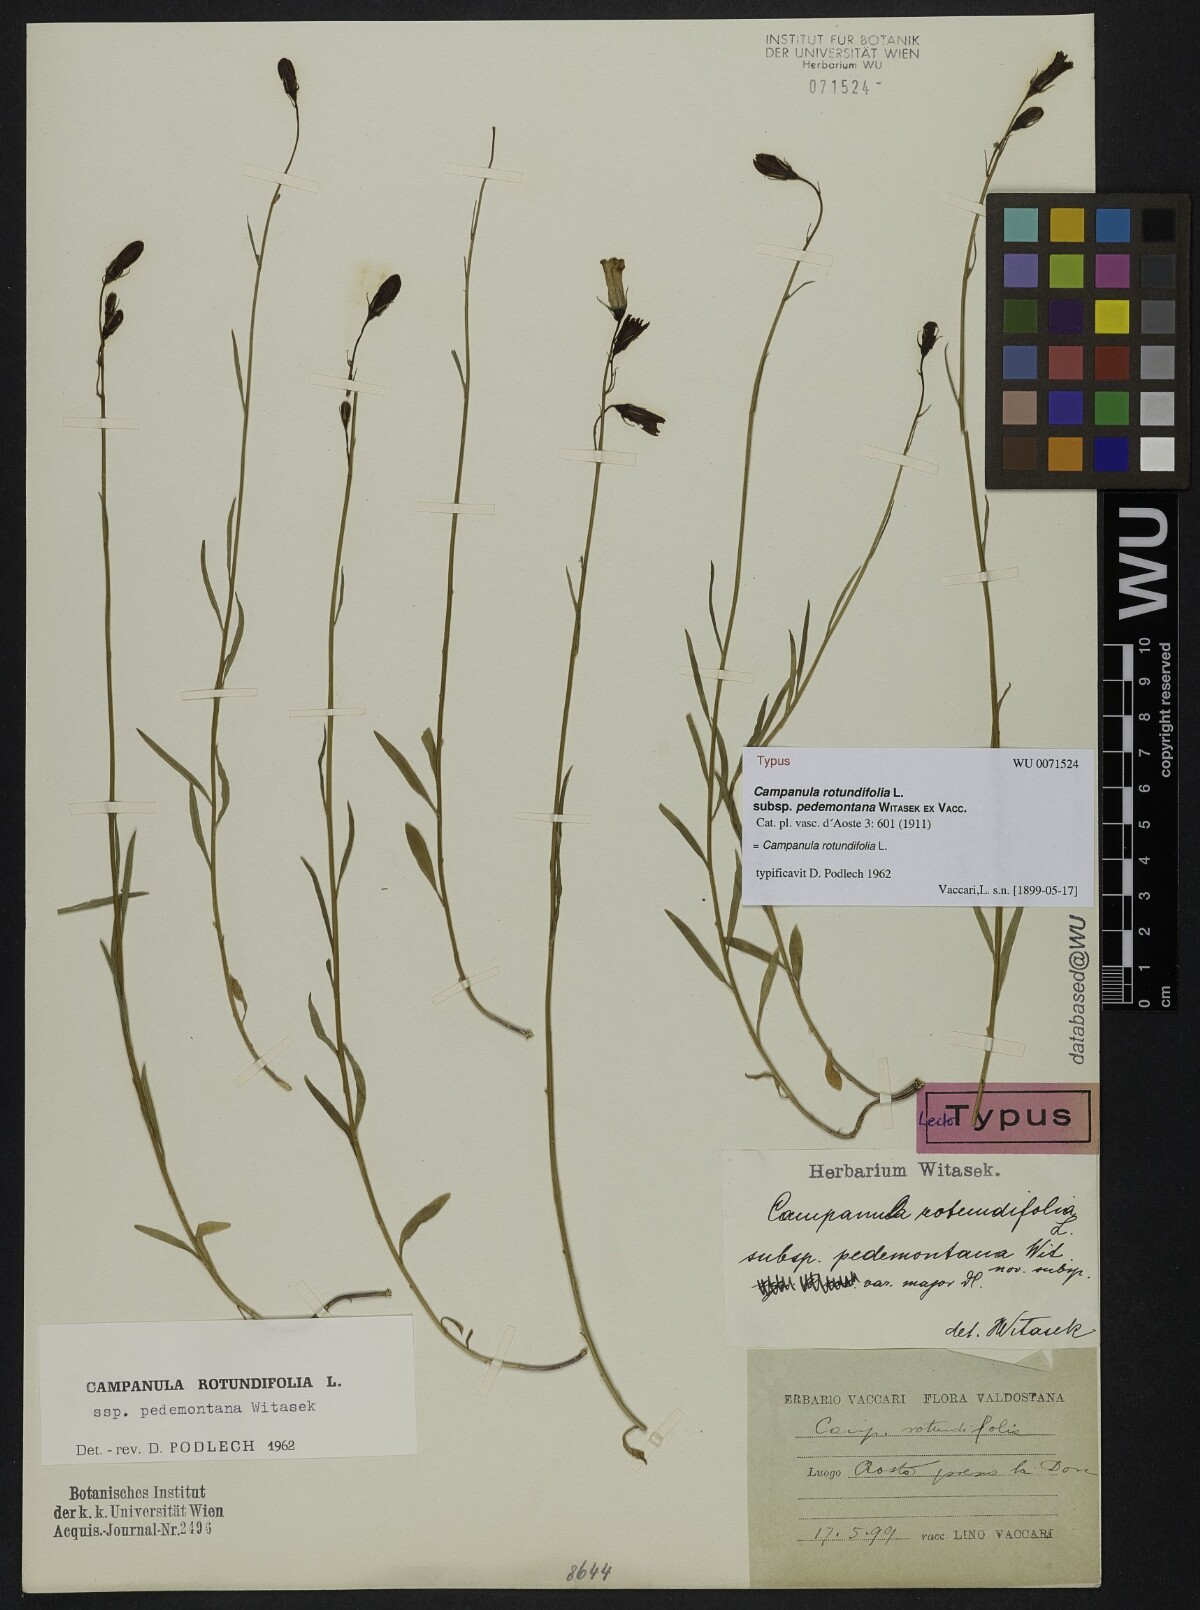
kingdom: Plantae
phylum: Tracheophyta
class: Magnoliopsida
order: Asterales
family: Campanulaceae
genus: Campanula
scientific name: Campanula rotundifolia
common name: Harebell
